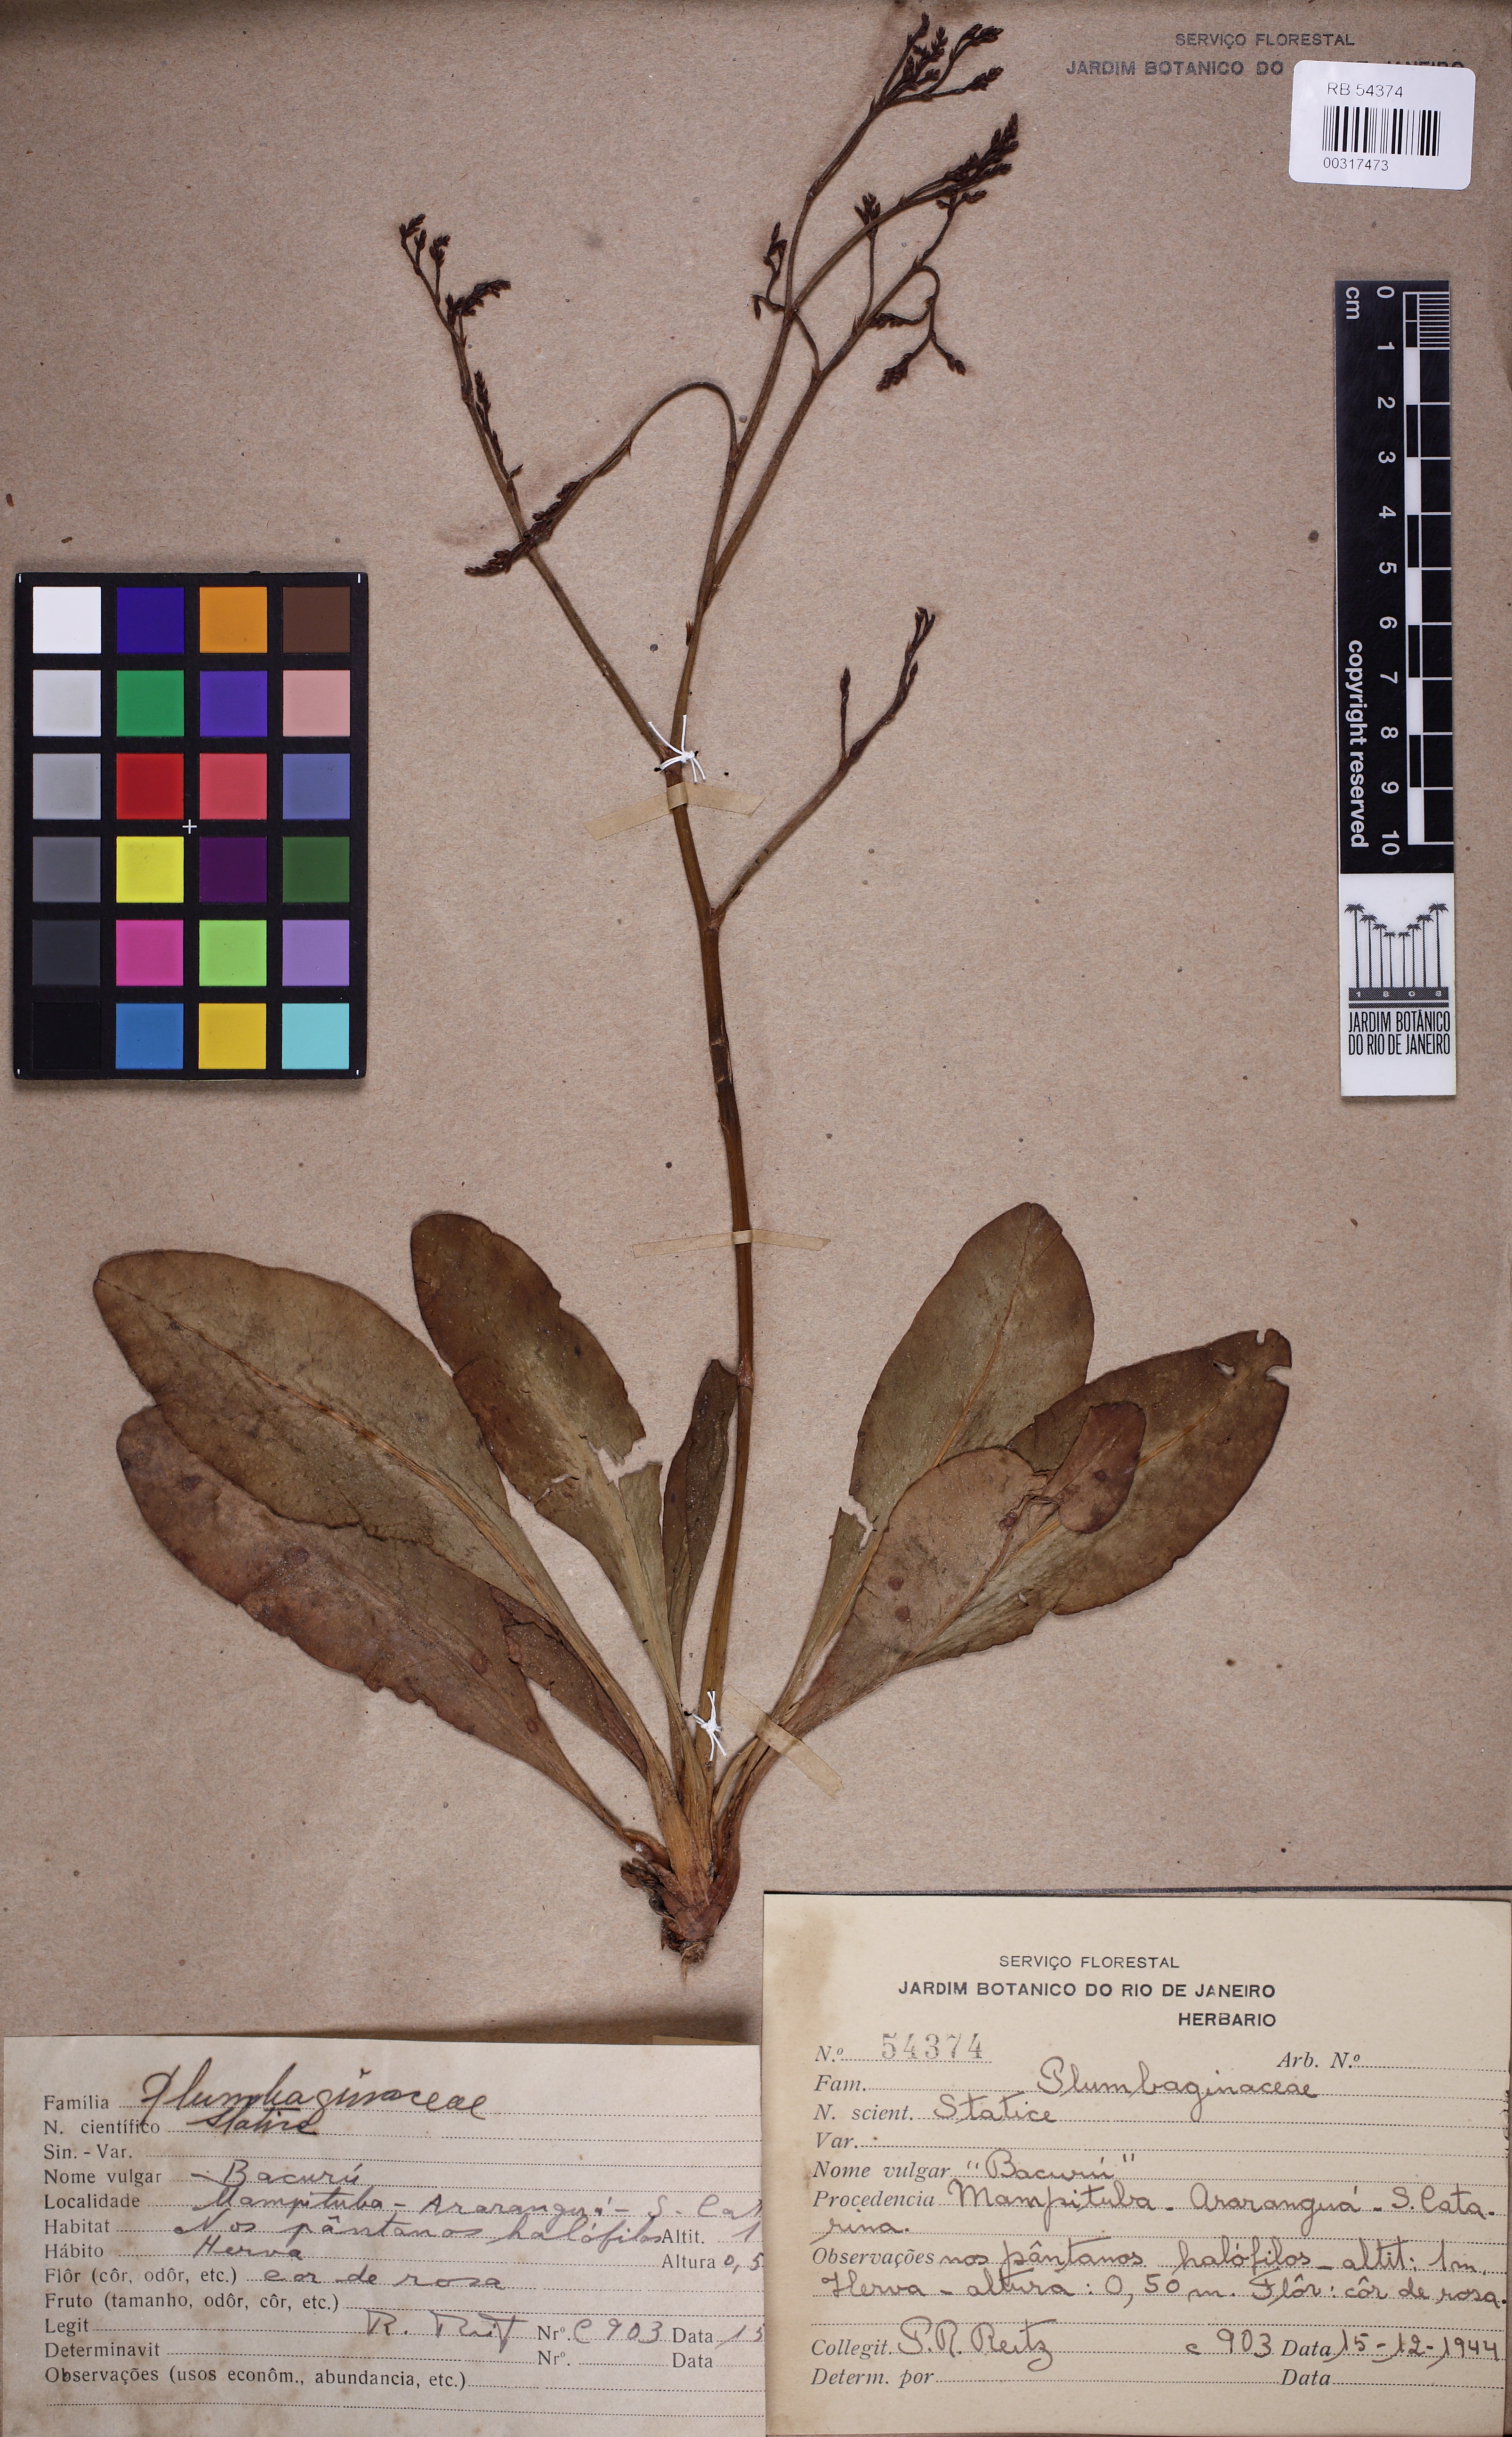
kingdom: Plantae
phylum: Tracheophyta
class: Magnoliopsida
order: Caryophyllales
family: Plumbaginaceae
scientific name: Plumbaginaceae
